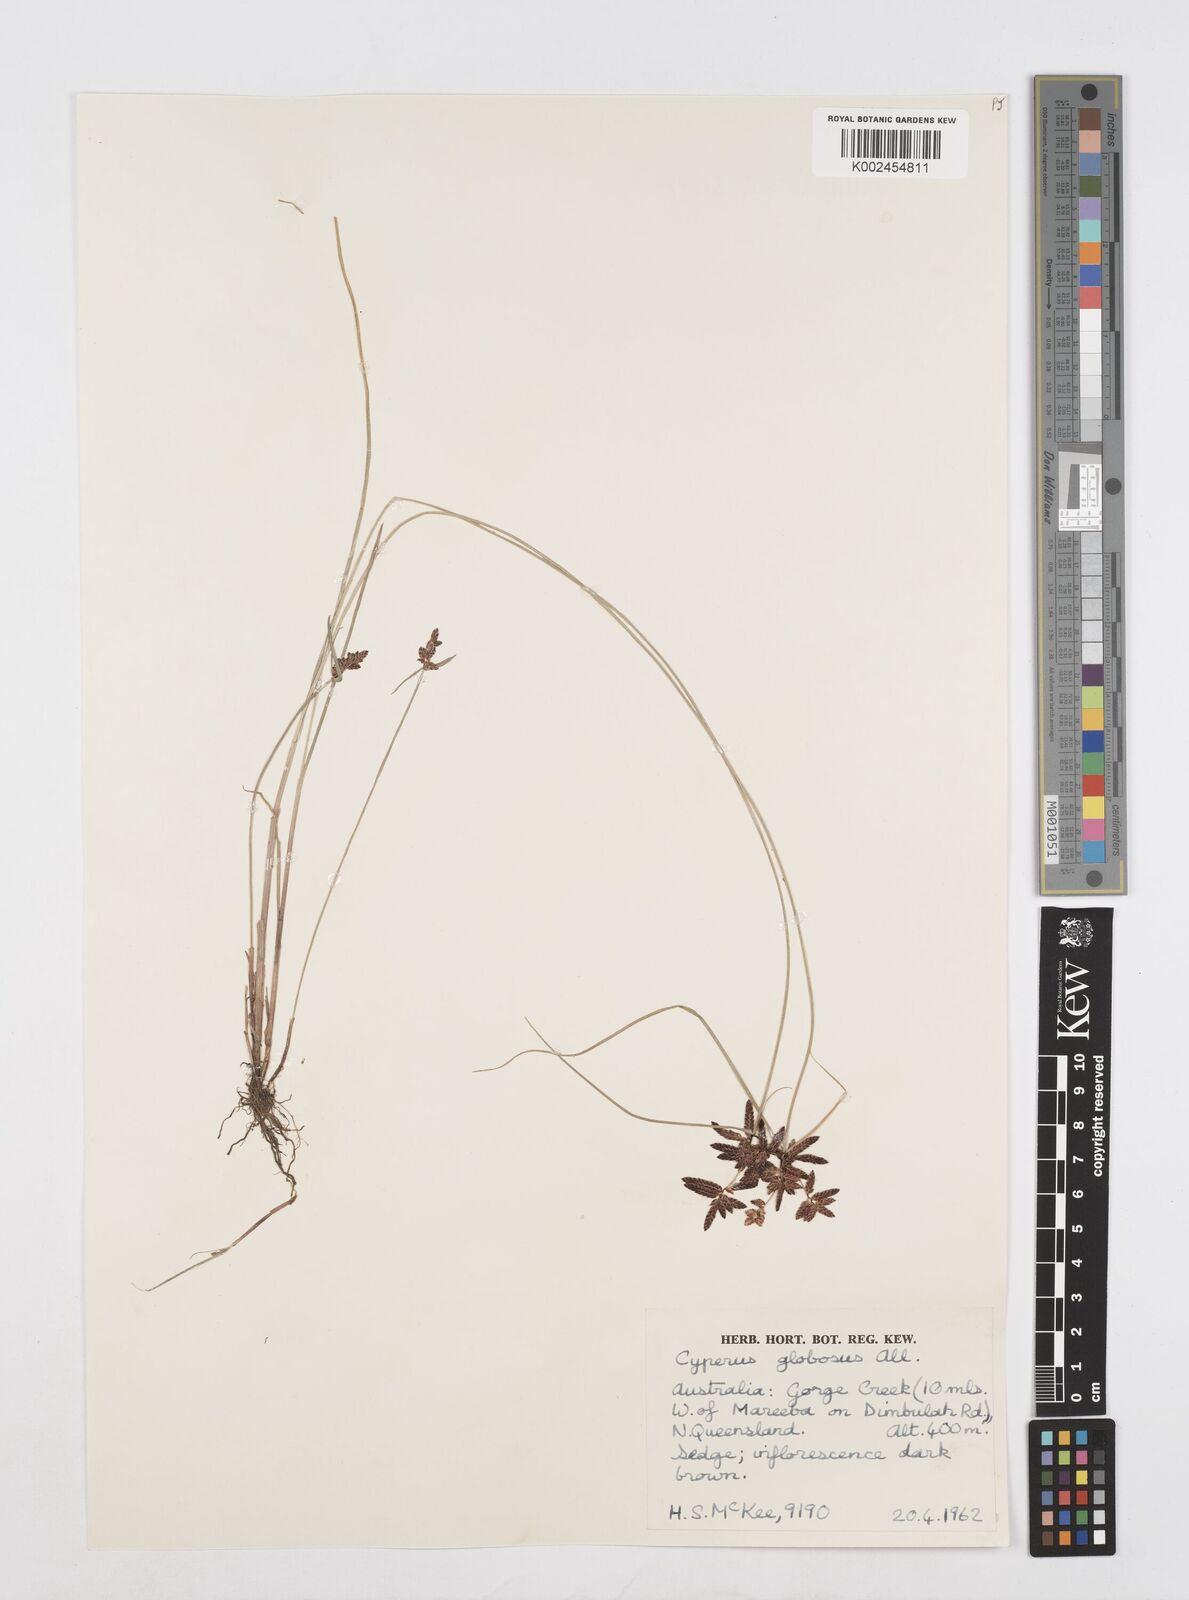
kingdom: Plantae
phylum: Tracheophyta
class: Liliopsida
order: Poales
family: Cyperaceae
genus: Cyperus
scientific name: Cyperus flavidus
